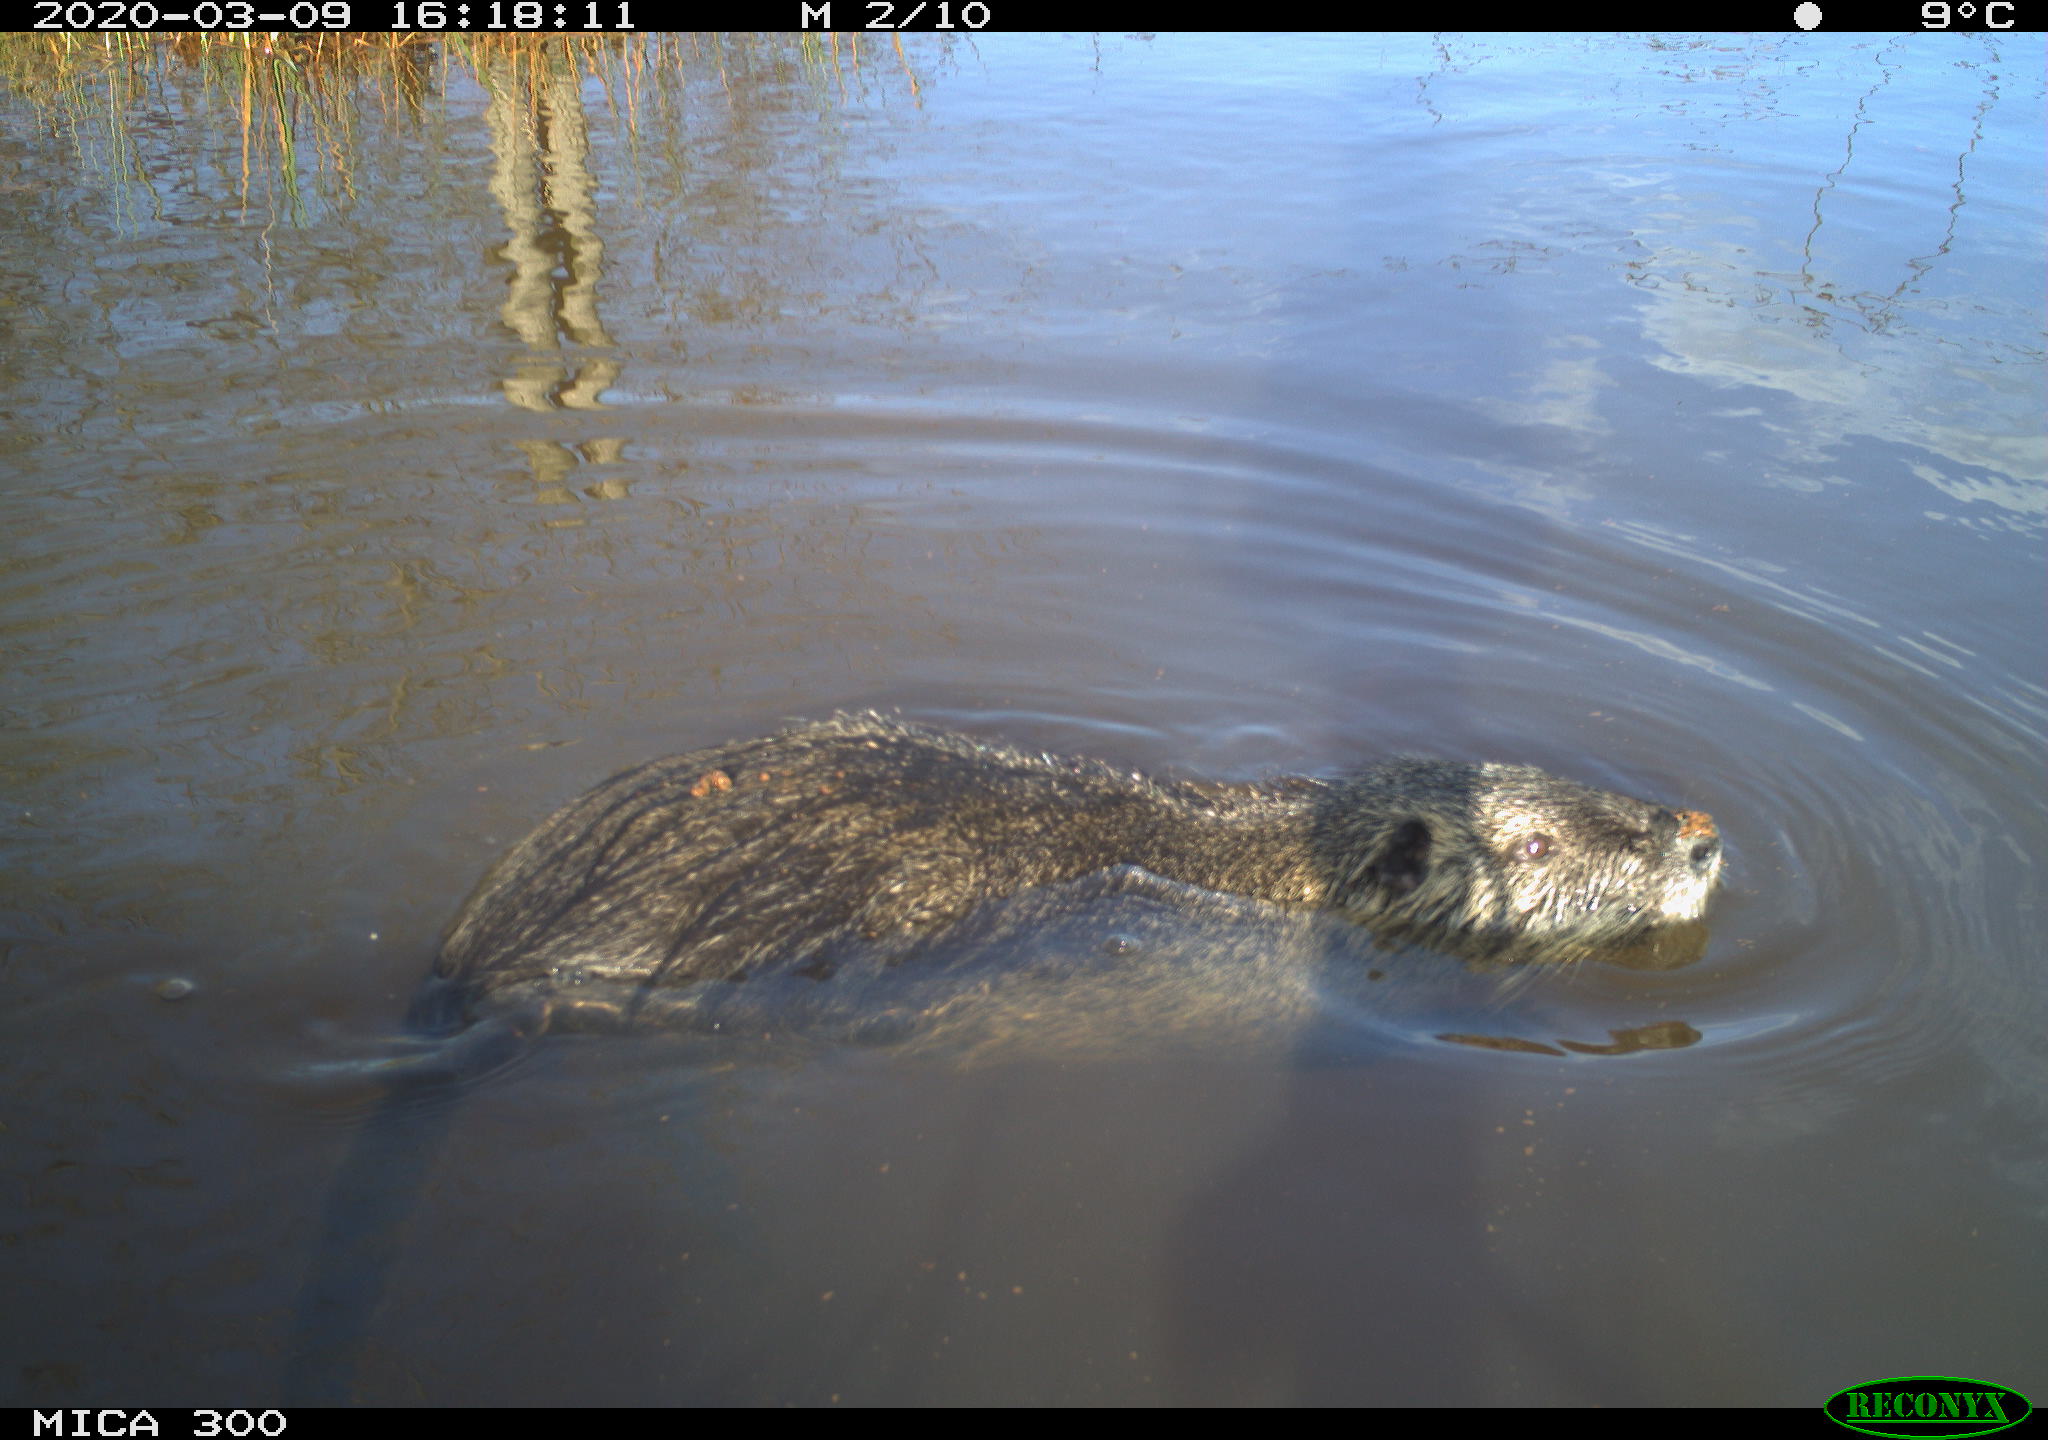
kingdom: Animalia
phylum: Chordata
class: Mammalia
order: Rodentia
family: Myocastoridae
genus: Myocastor
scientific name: Myocastor coypus
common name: Coypu
